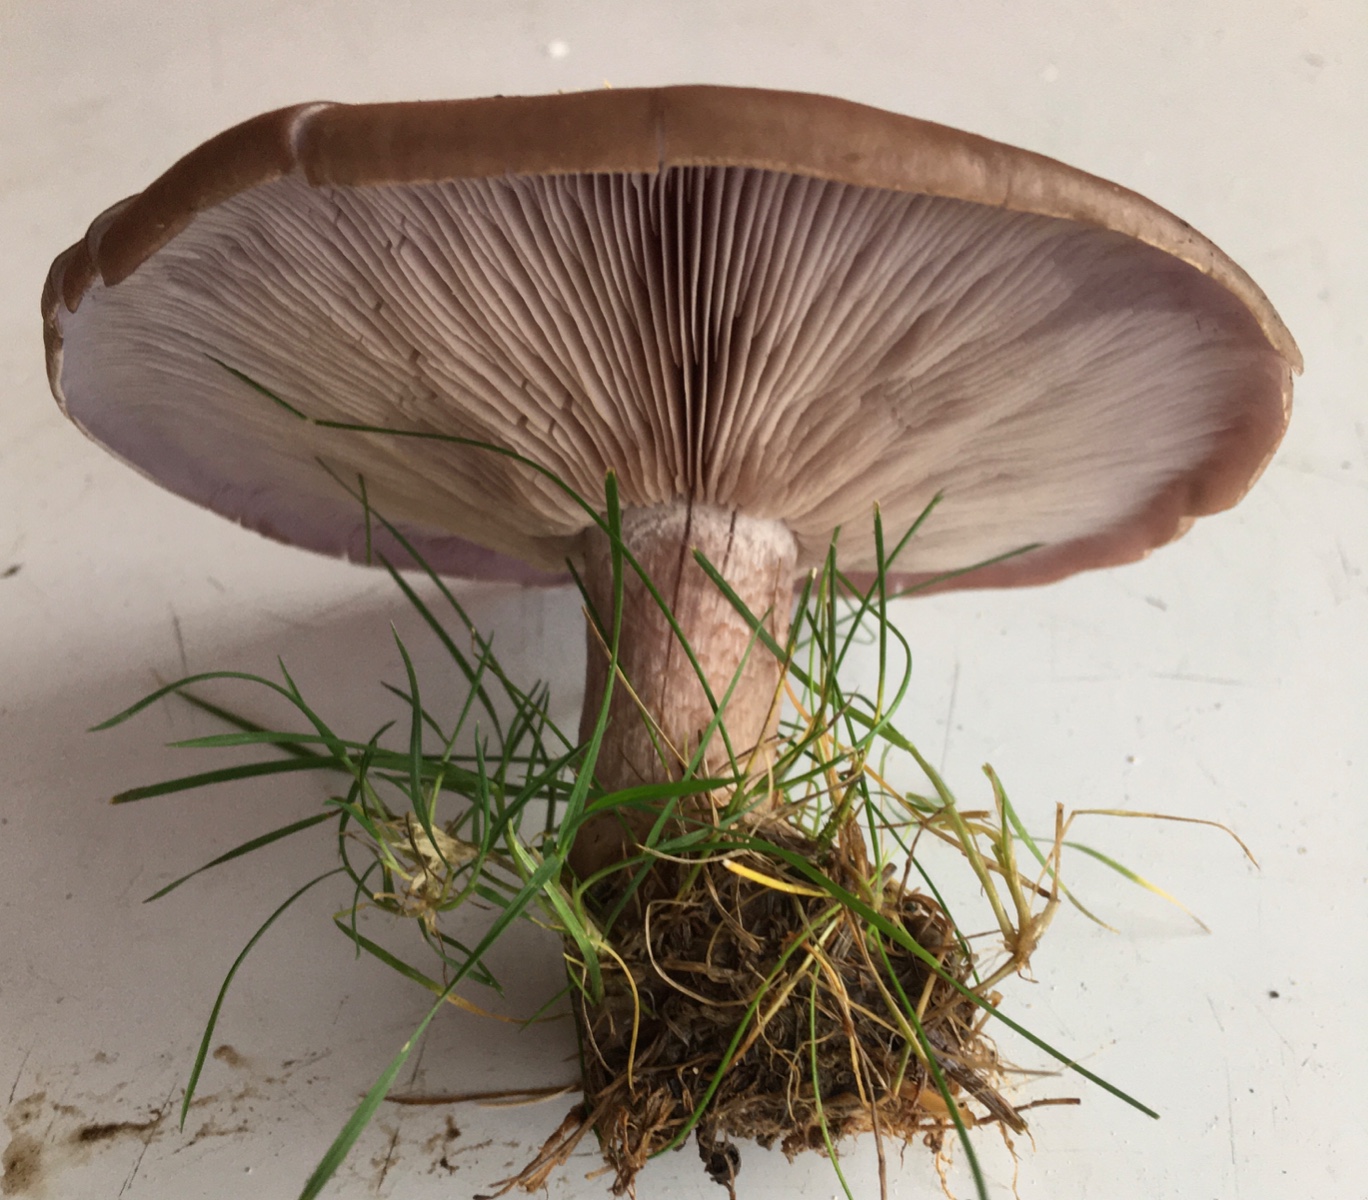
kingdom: Fungi
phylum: Basidiomycota
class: Agaricomycetes
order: Agaricales
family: Tricholomataceae
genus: Lepista
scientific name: Lepista nuda
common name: violet hekseringshat
